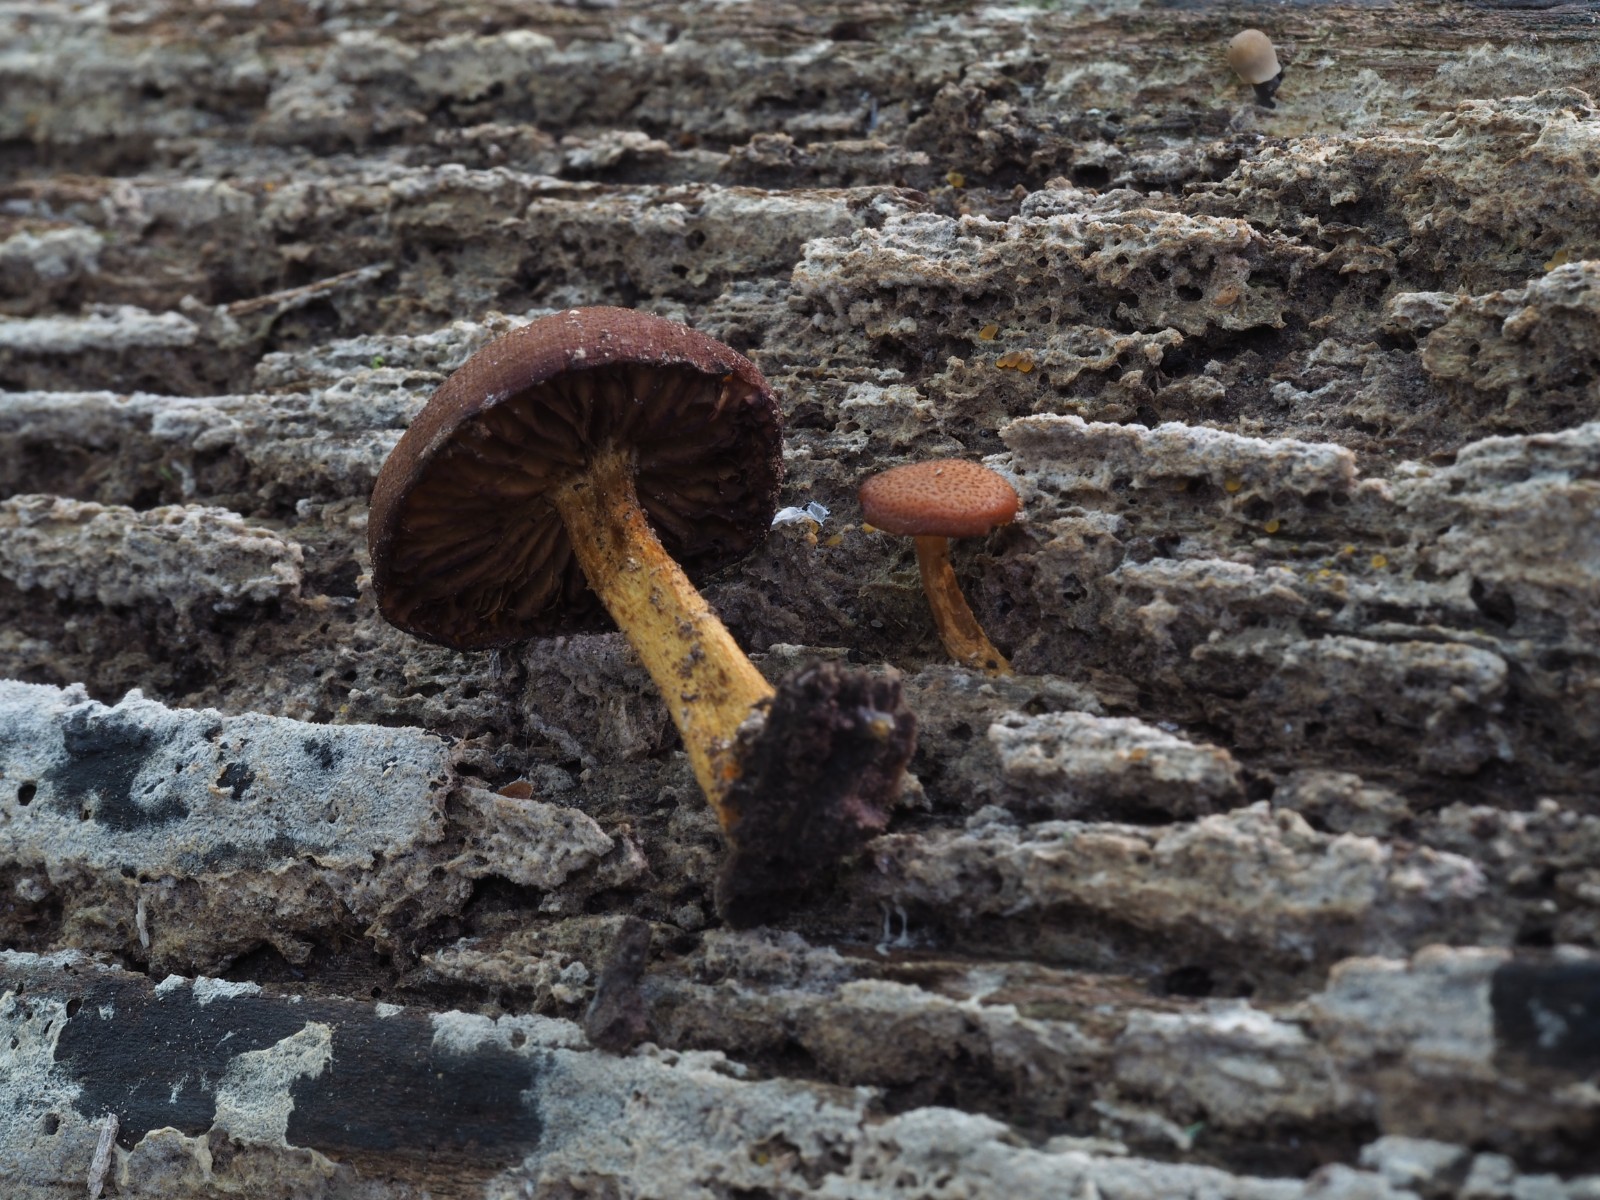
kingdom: Fungi
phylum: Basidiomycota
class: Agaricomycetes
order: Agaricales
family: Tubariaceae
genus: Flammulaster
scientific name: Flammulaster limulatus
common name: gylden grynskælhat
